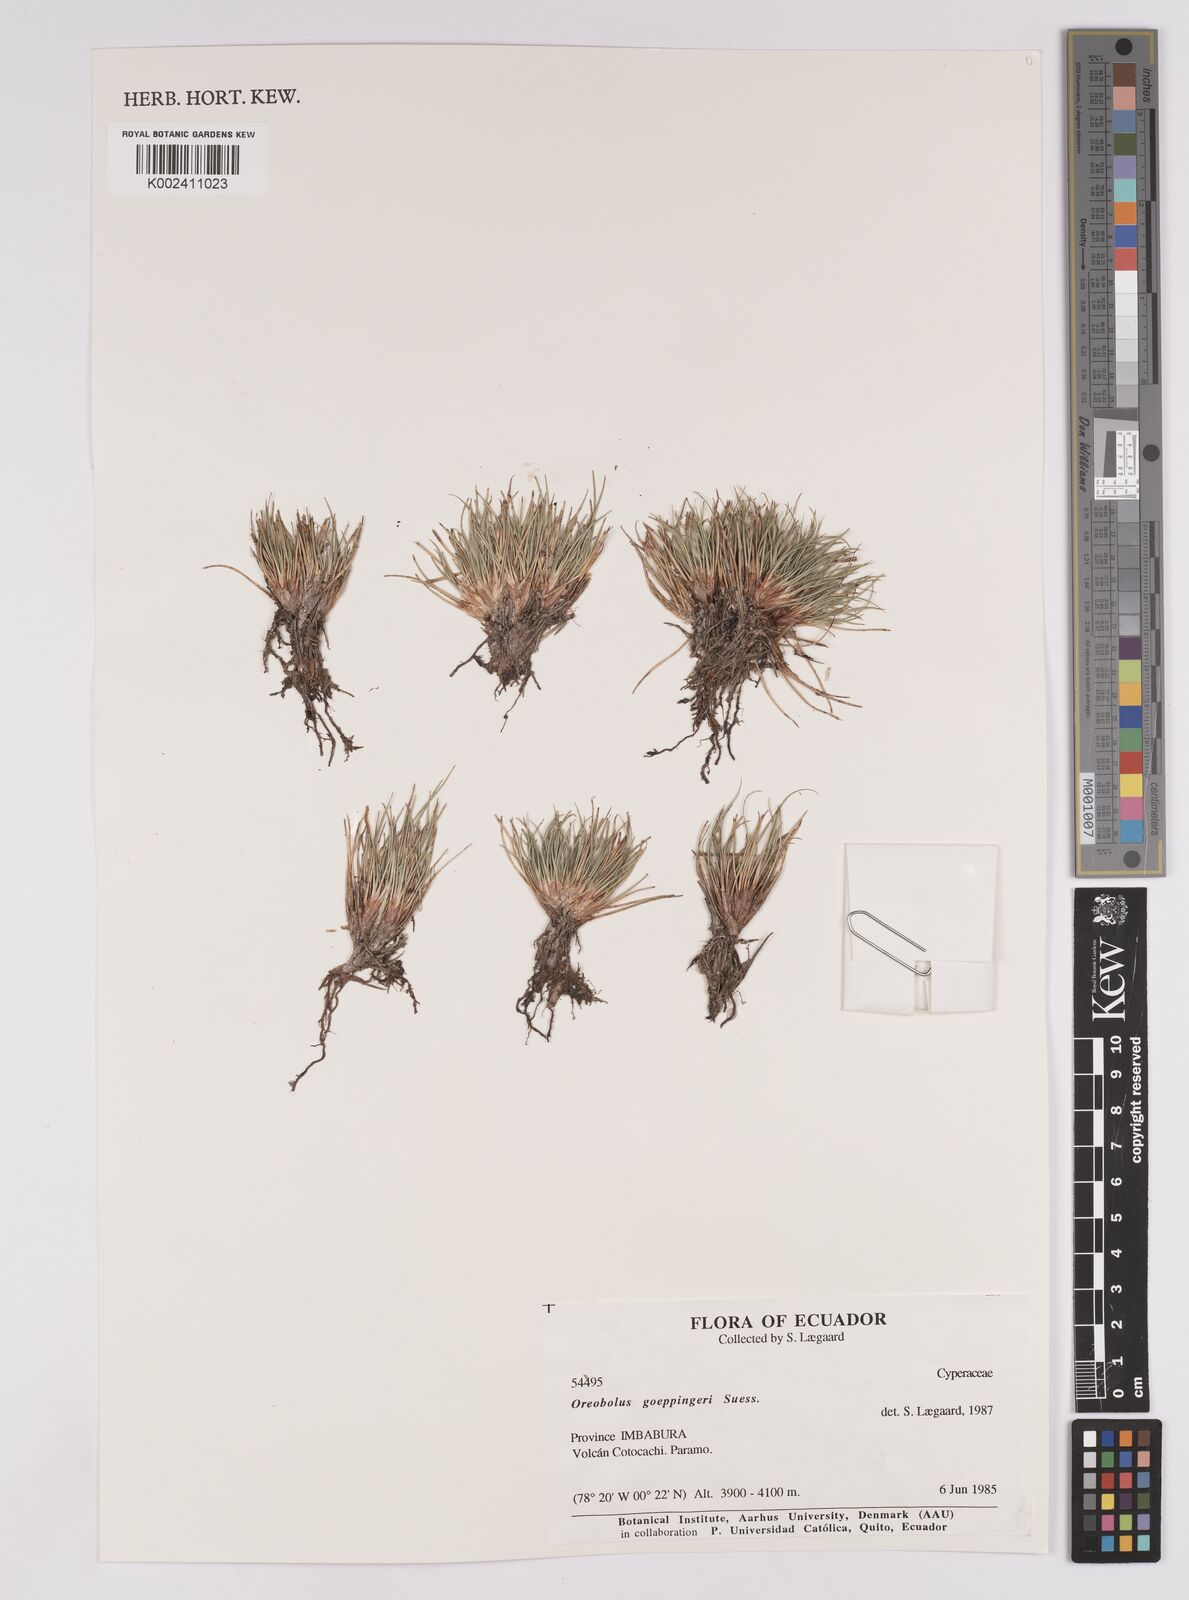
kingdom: Plantae
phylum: Tracheophyta
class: Liliopsida
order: Poales
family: Cyperaceae
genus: Oreobolus
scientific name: Oreobolus goeppingeri
